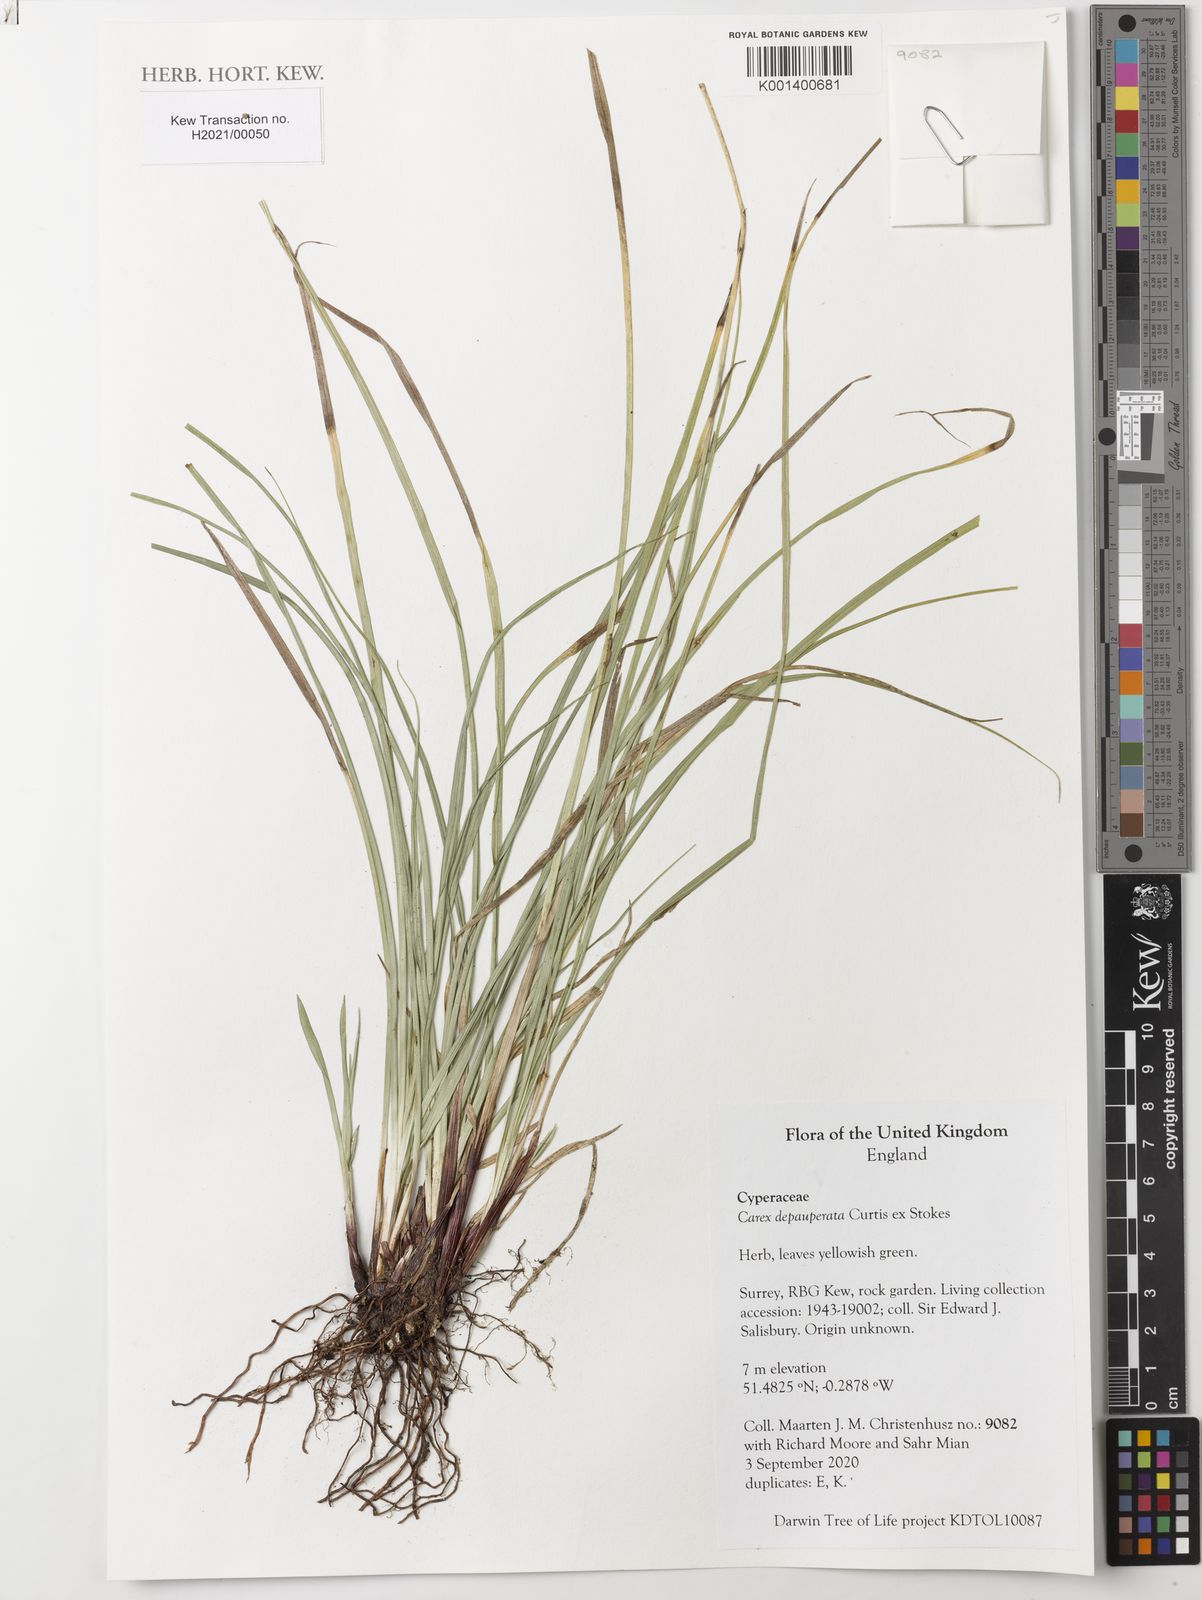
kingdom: Plantae
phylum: Tracheophyta
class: Liliopsida
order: Poales
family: Cyperaceae
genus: Carex
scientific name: Carex depauperata
